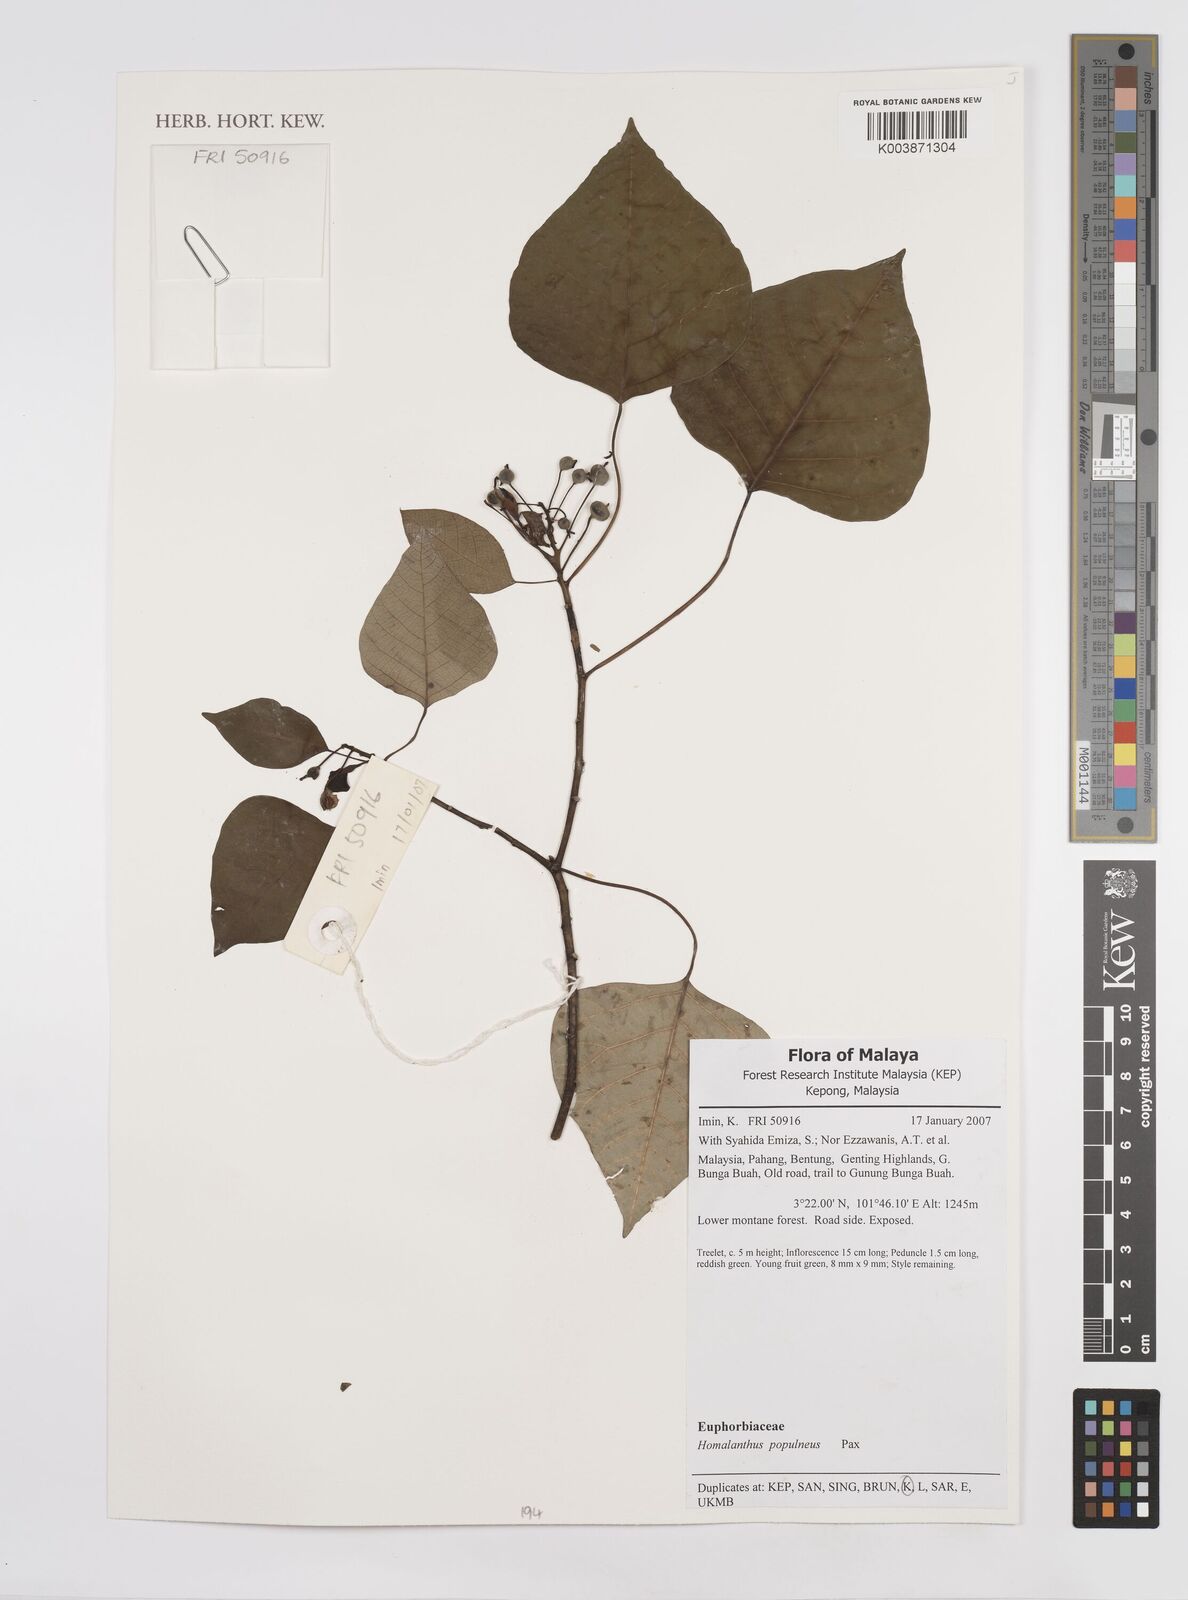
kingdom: Plantae
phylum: Tracheophyta
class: Magnoliopsida
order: Malpighiales
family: Euphorbiaceae
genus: Homalanthus
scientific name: Homalanthus populneus
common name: Spurge
